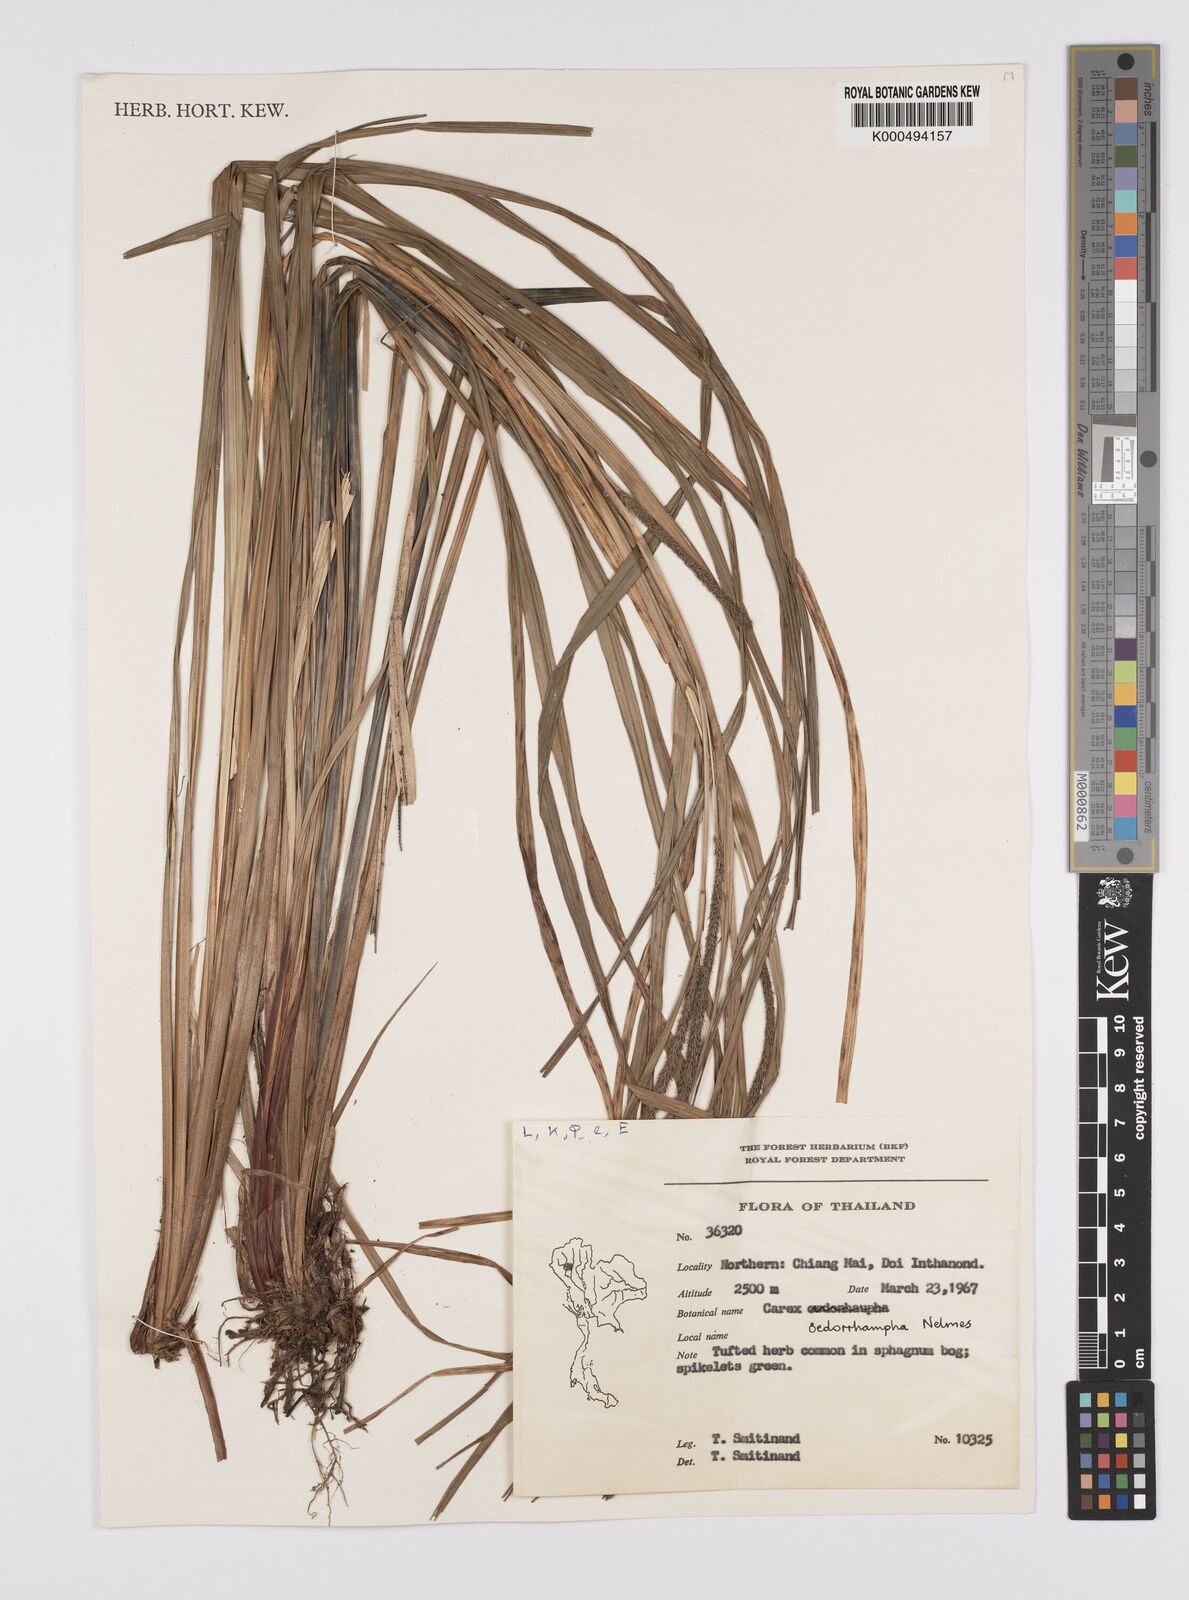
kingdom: Plantae
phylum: Tracheophyta
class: Liliopsida
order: Poales
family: Cyperaceae
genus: Carex
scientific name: Carex tumida
